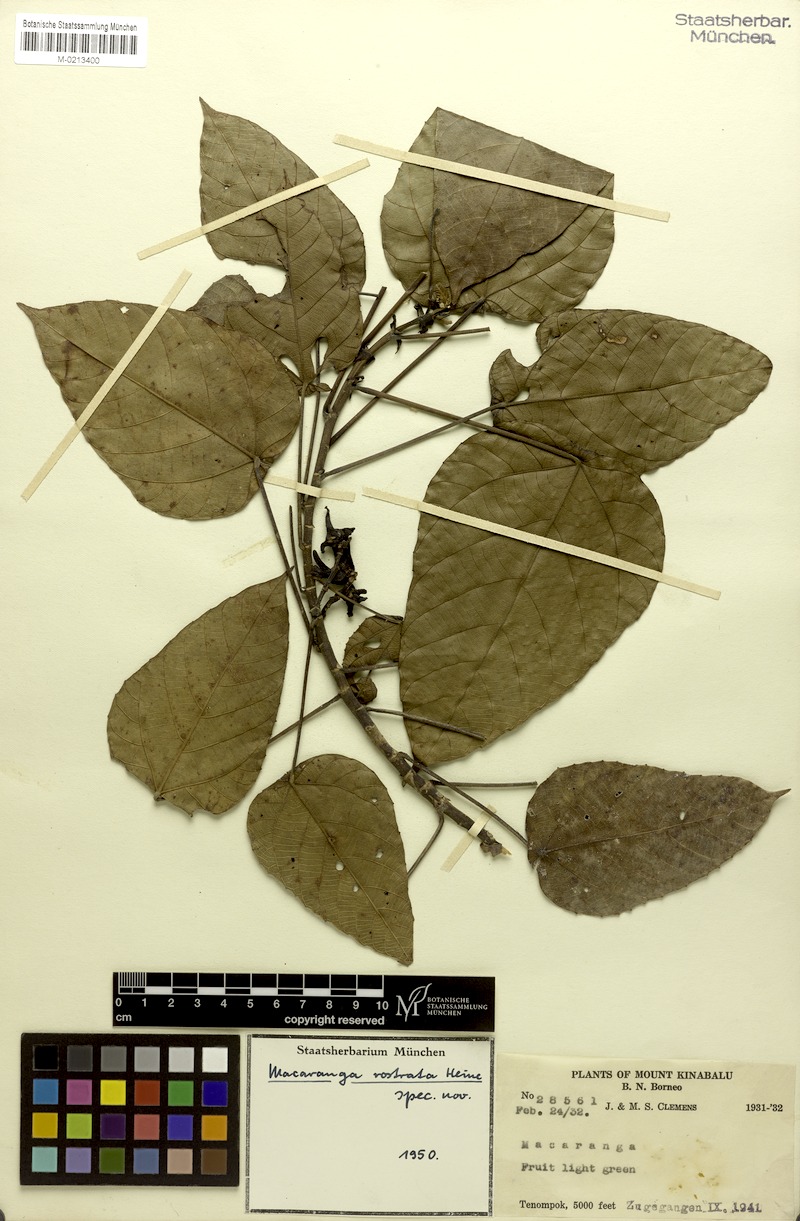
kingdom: Plantae
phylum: Tracheophyta
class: Magnoliopsida
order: Malpighiales
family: Euphorbiaceae
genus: Macaranga
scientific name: Macaranga rostrata
